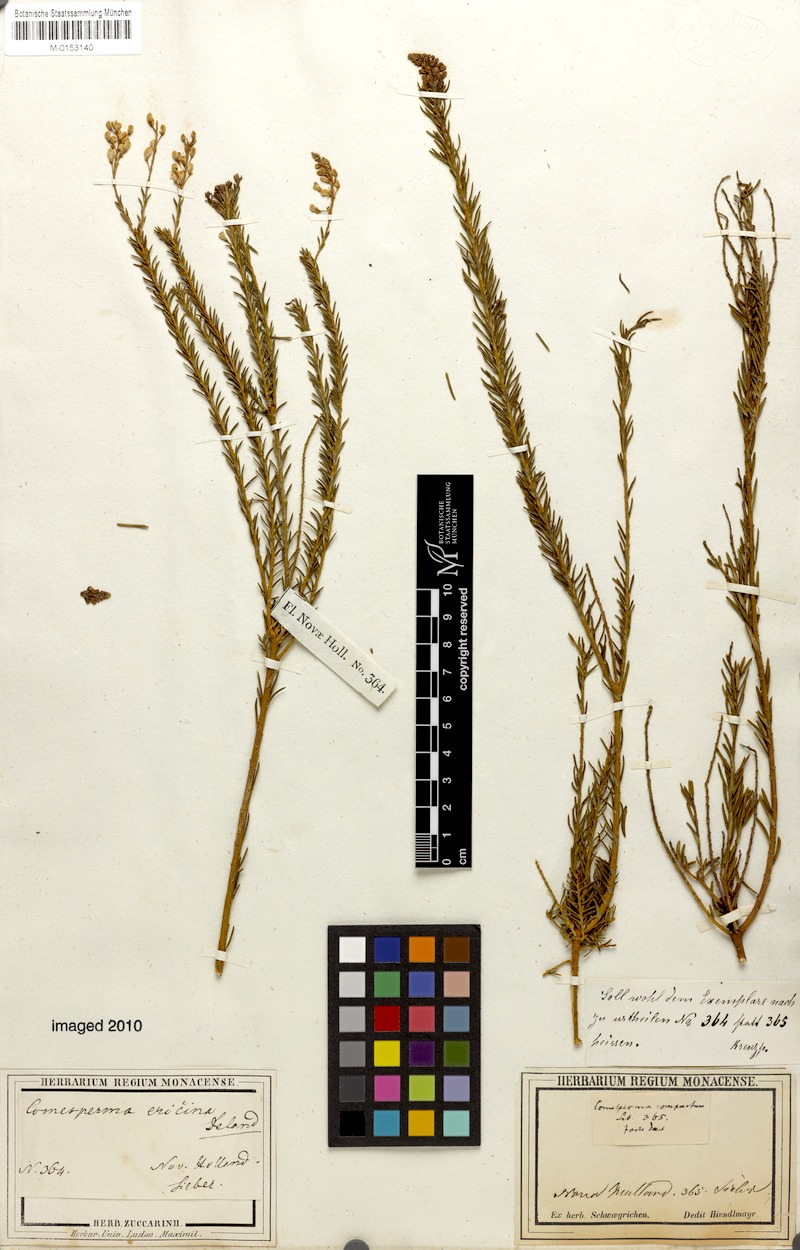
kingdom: Plantae
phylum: Tracheophyta
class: Magnoliopsida
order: Fabales
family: Polygalaceae
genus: Comesperma
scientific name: Comesperma ericinum
